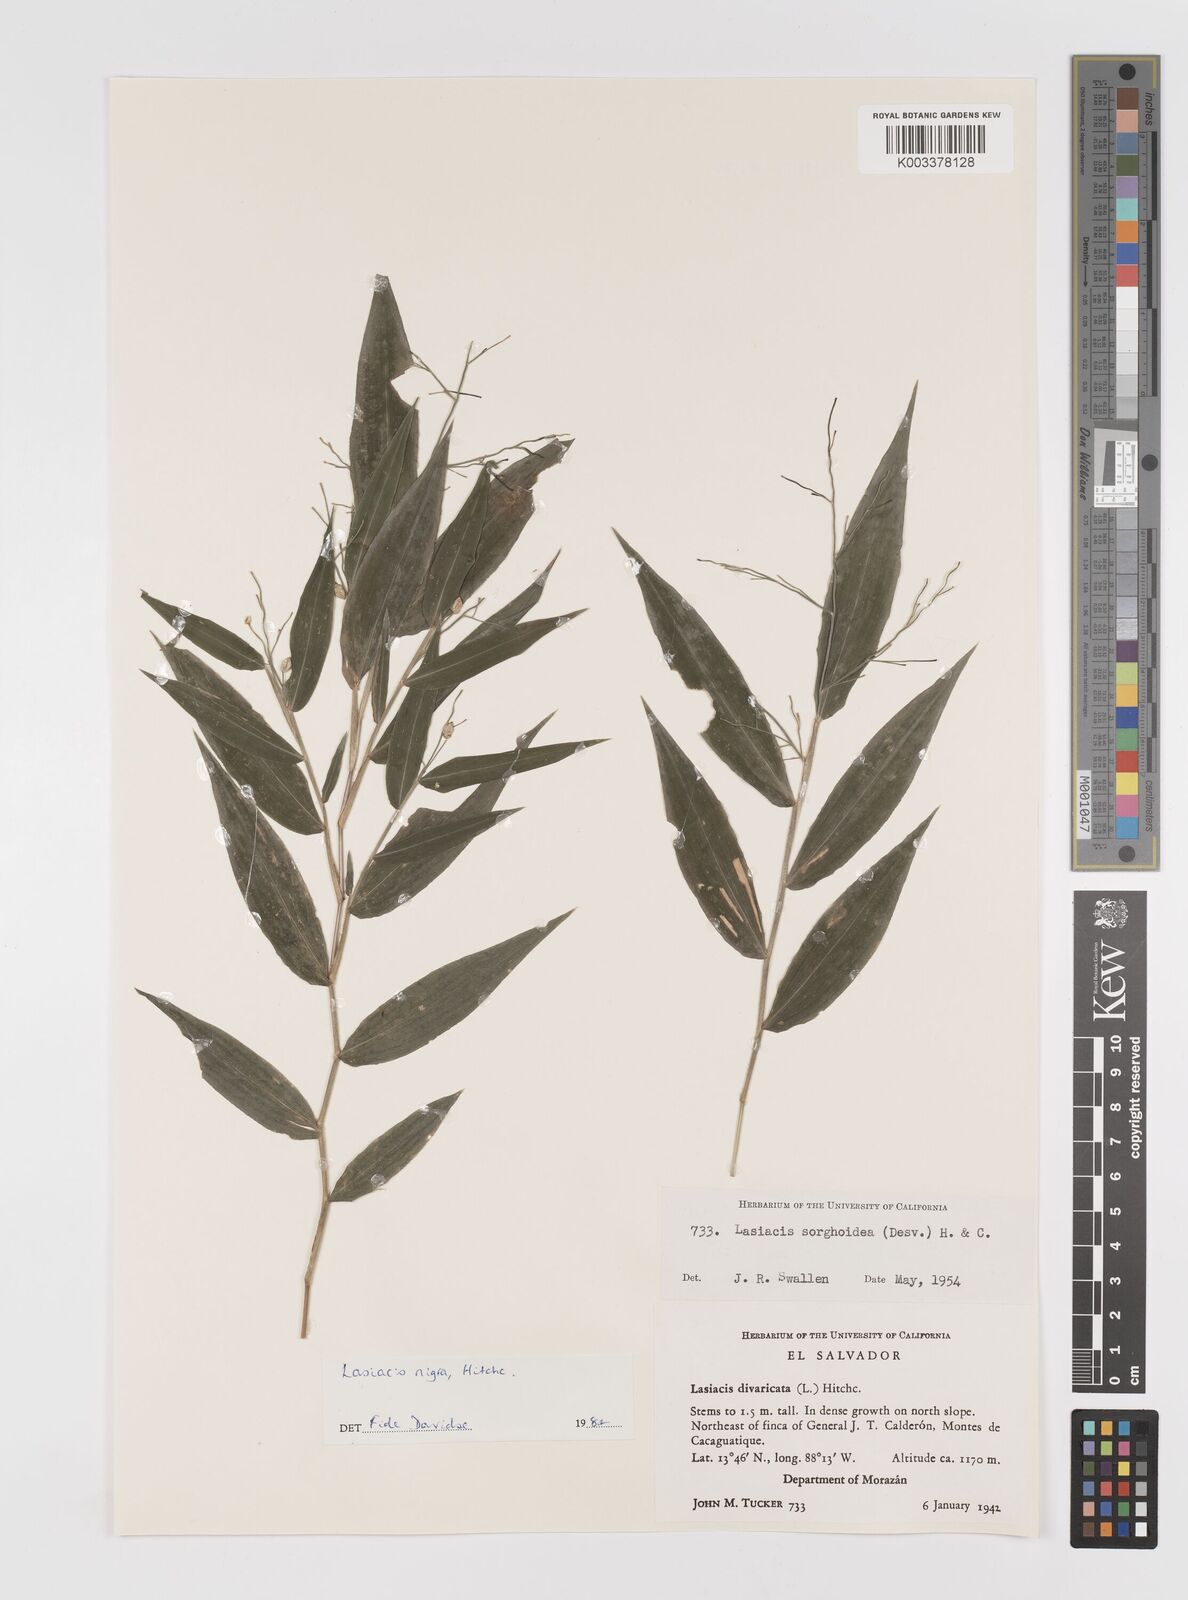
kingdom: Plantae
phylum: Tracheophyta
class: Liliopsida
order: Poales
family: Poaceae
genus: Lasiacis
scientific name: Lasiacis nigra
